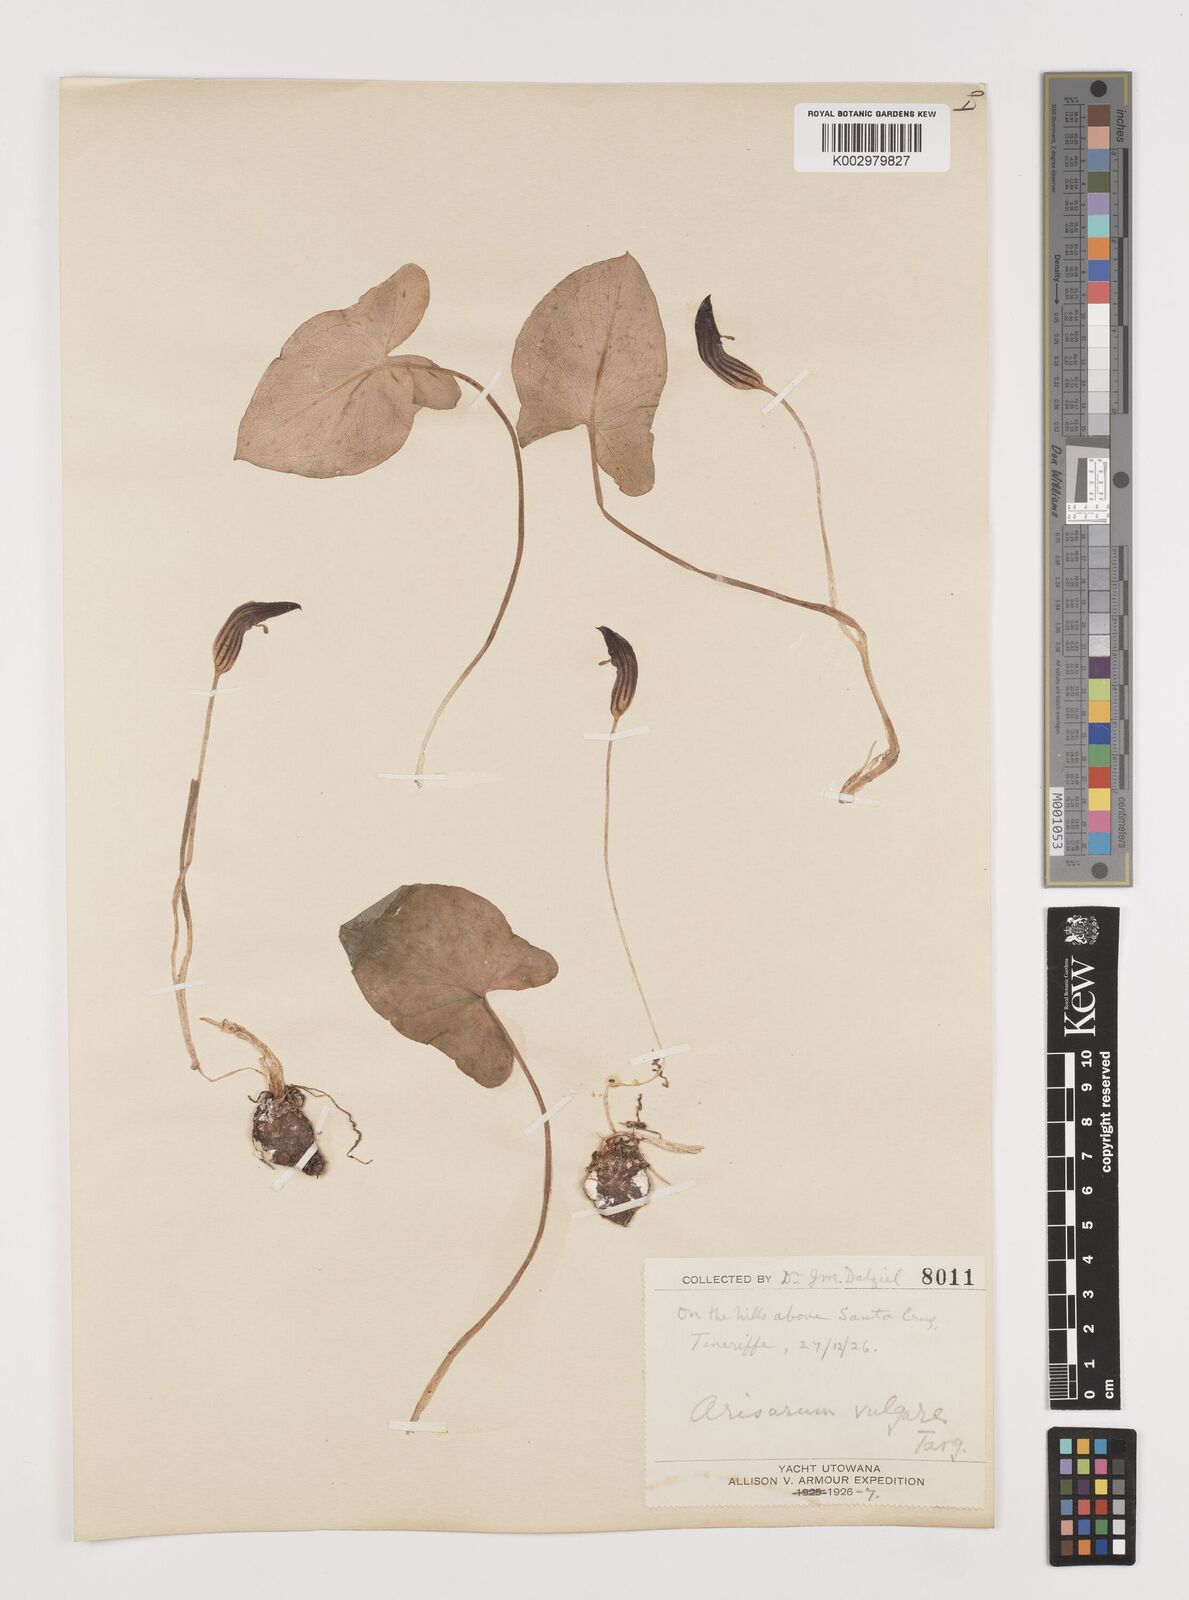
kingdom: Plantae
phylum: Tracheophyta
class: Liliopsida
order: Alismatales
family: Araceae
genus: Arisarum
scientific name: Arisarum vulgare
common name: Common arisarum
